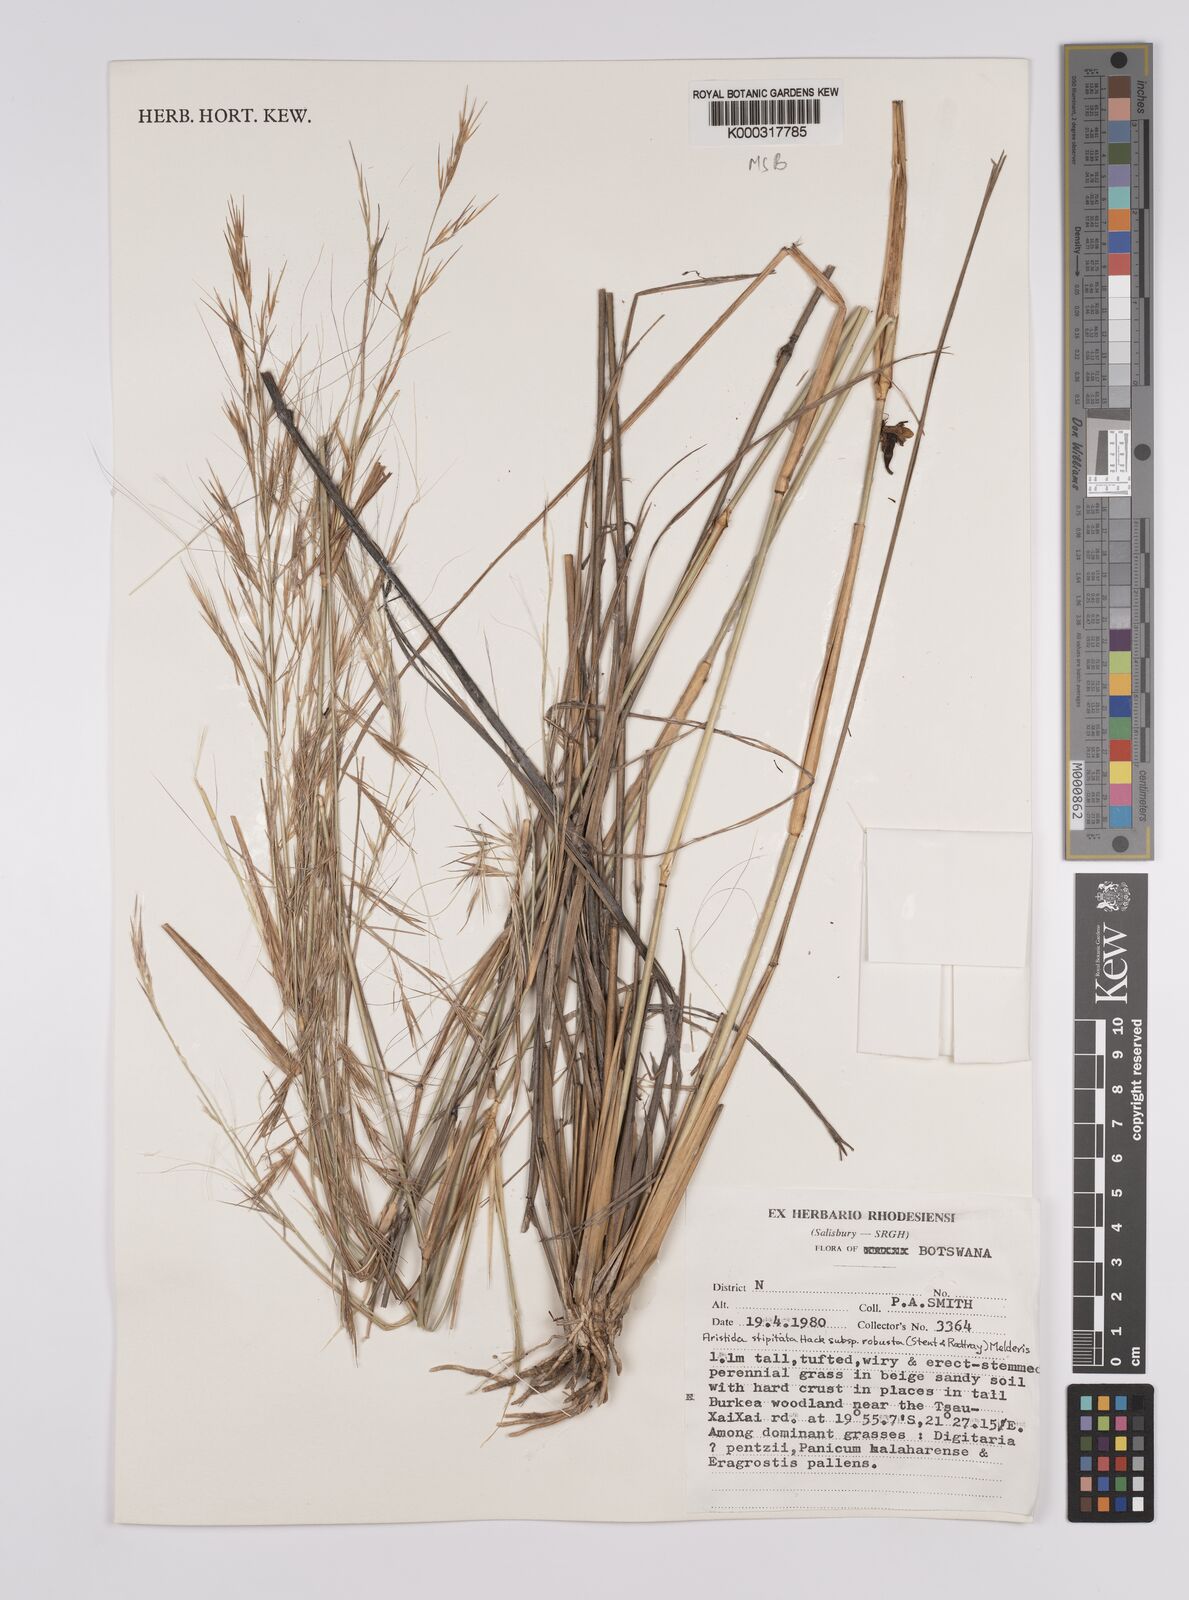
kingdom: Plantae
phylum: Tracheophyta
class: Liliopsida
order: Poales
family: Poaceae
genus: Aristida
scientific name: Aristida stipitata
